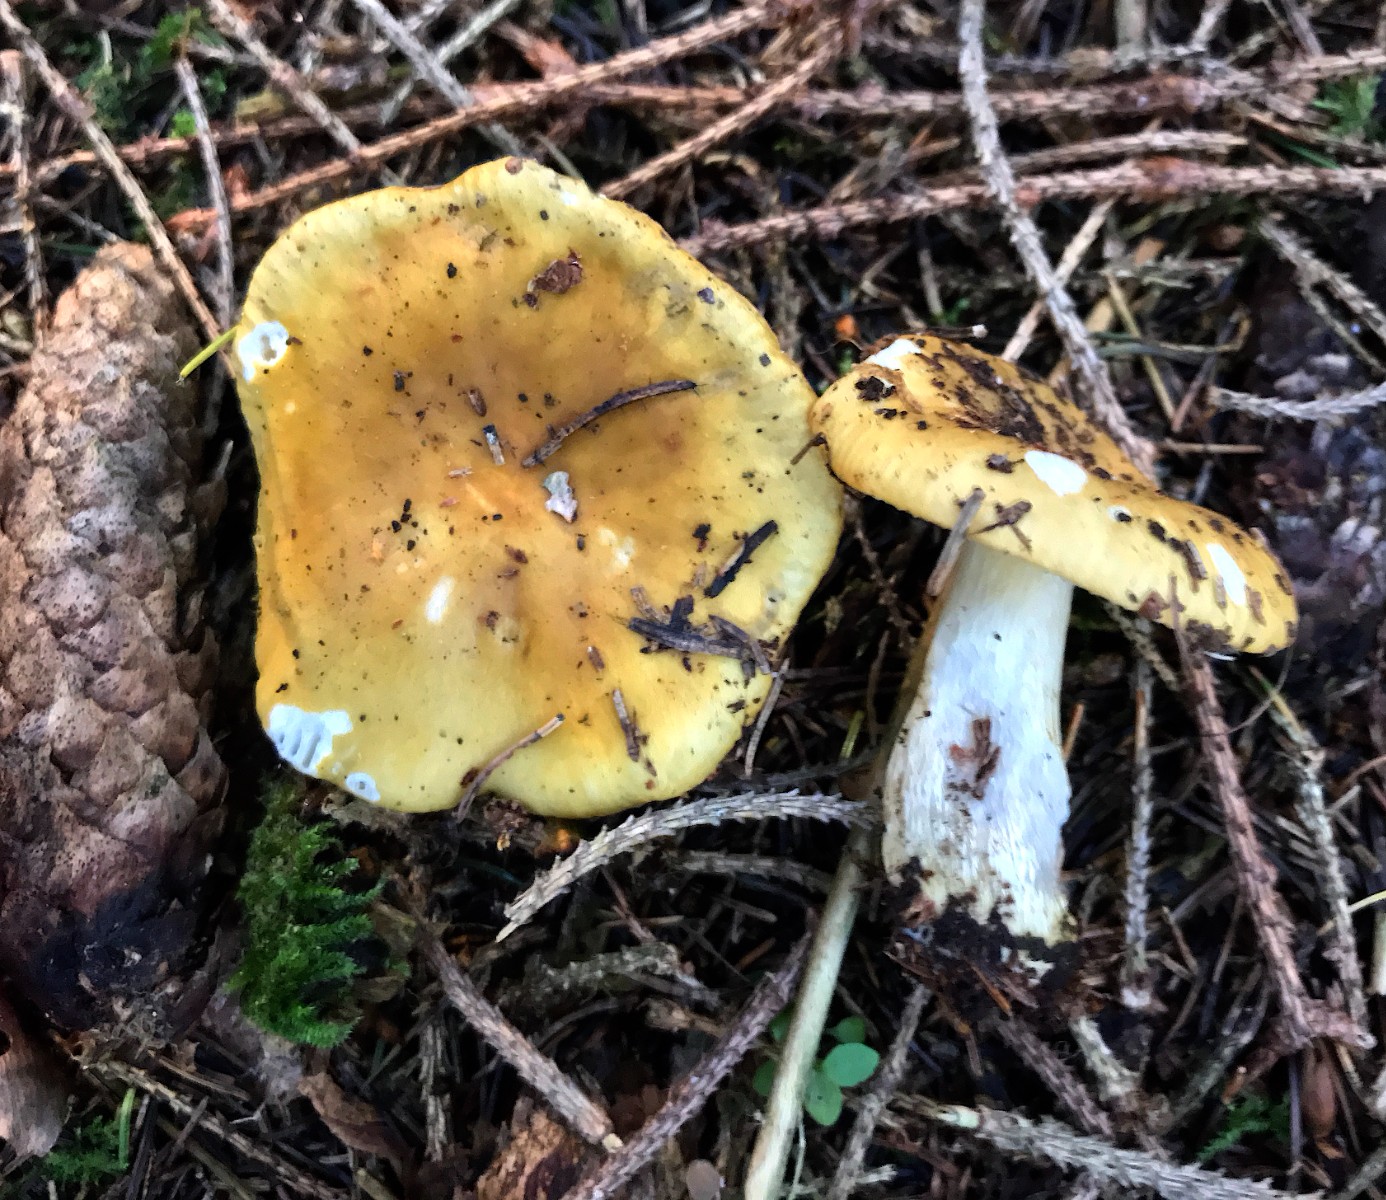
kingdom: Fungi
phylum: Basidiomycota
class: Agaricomycetes
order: Russulales
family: Russulaceae
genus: Russula
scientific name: Russula ochroleuca
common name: okkergul skørhat
